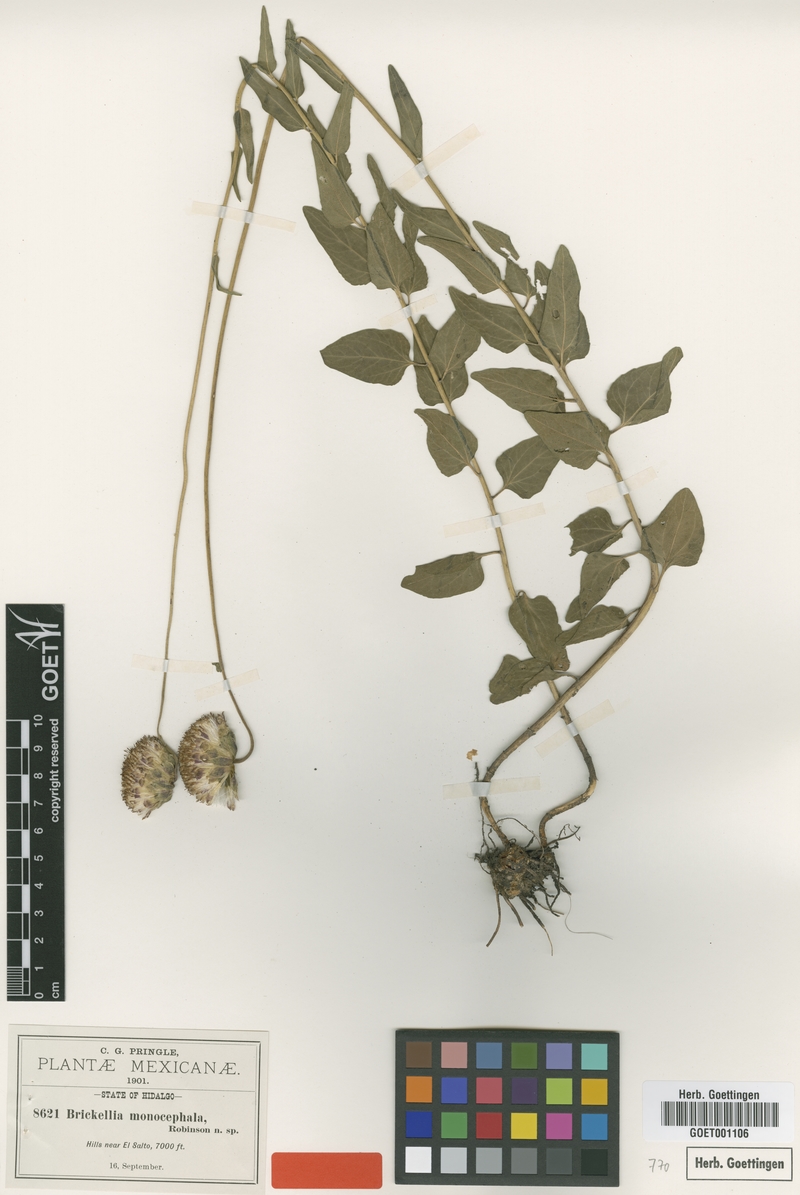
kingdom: Plantae
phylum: Tracheophyta
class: Magnoliopsida
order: Asterales
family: Asteraceae
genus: Brickellia
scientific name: Brickellia monocephala
